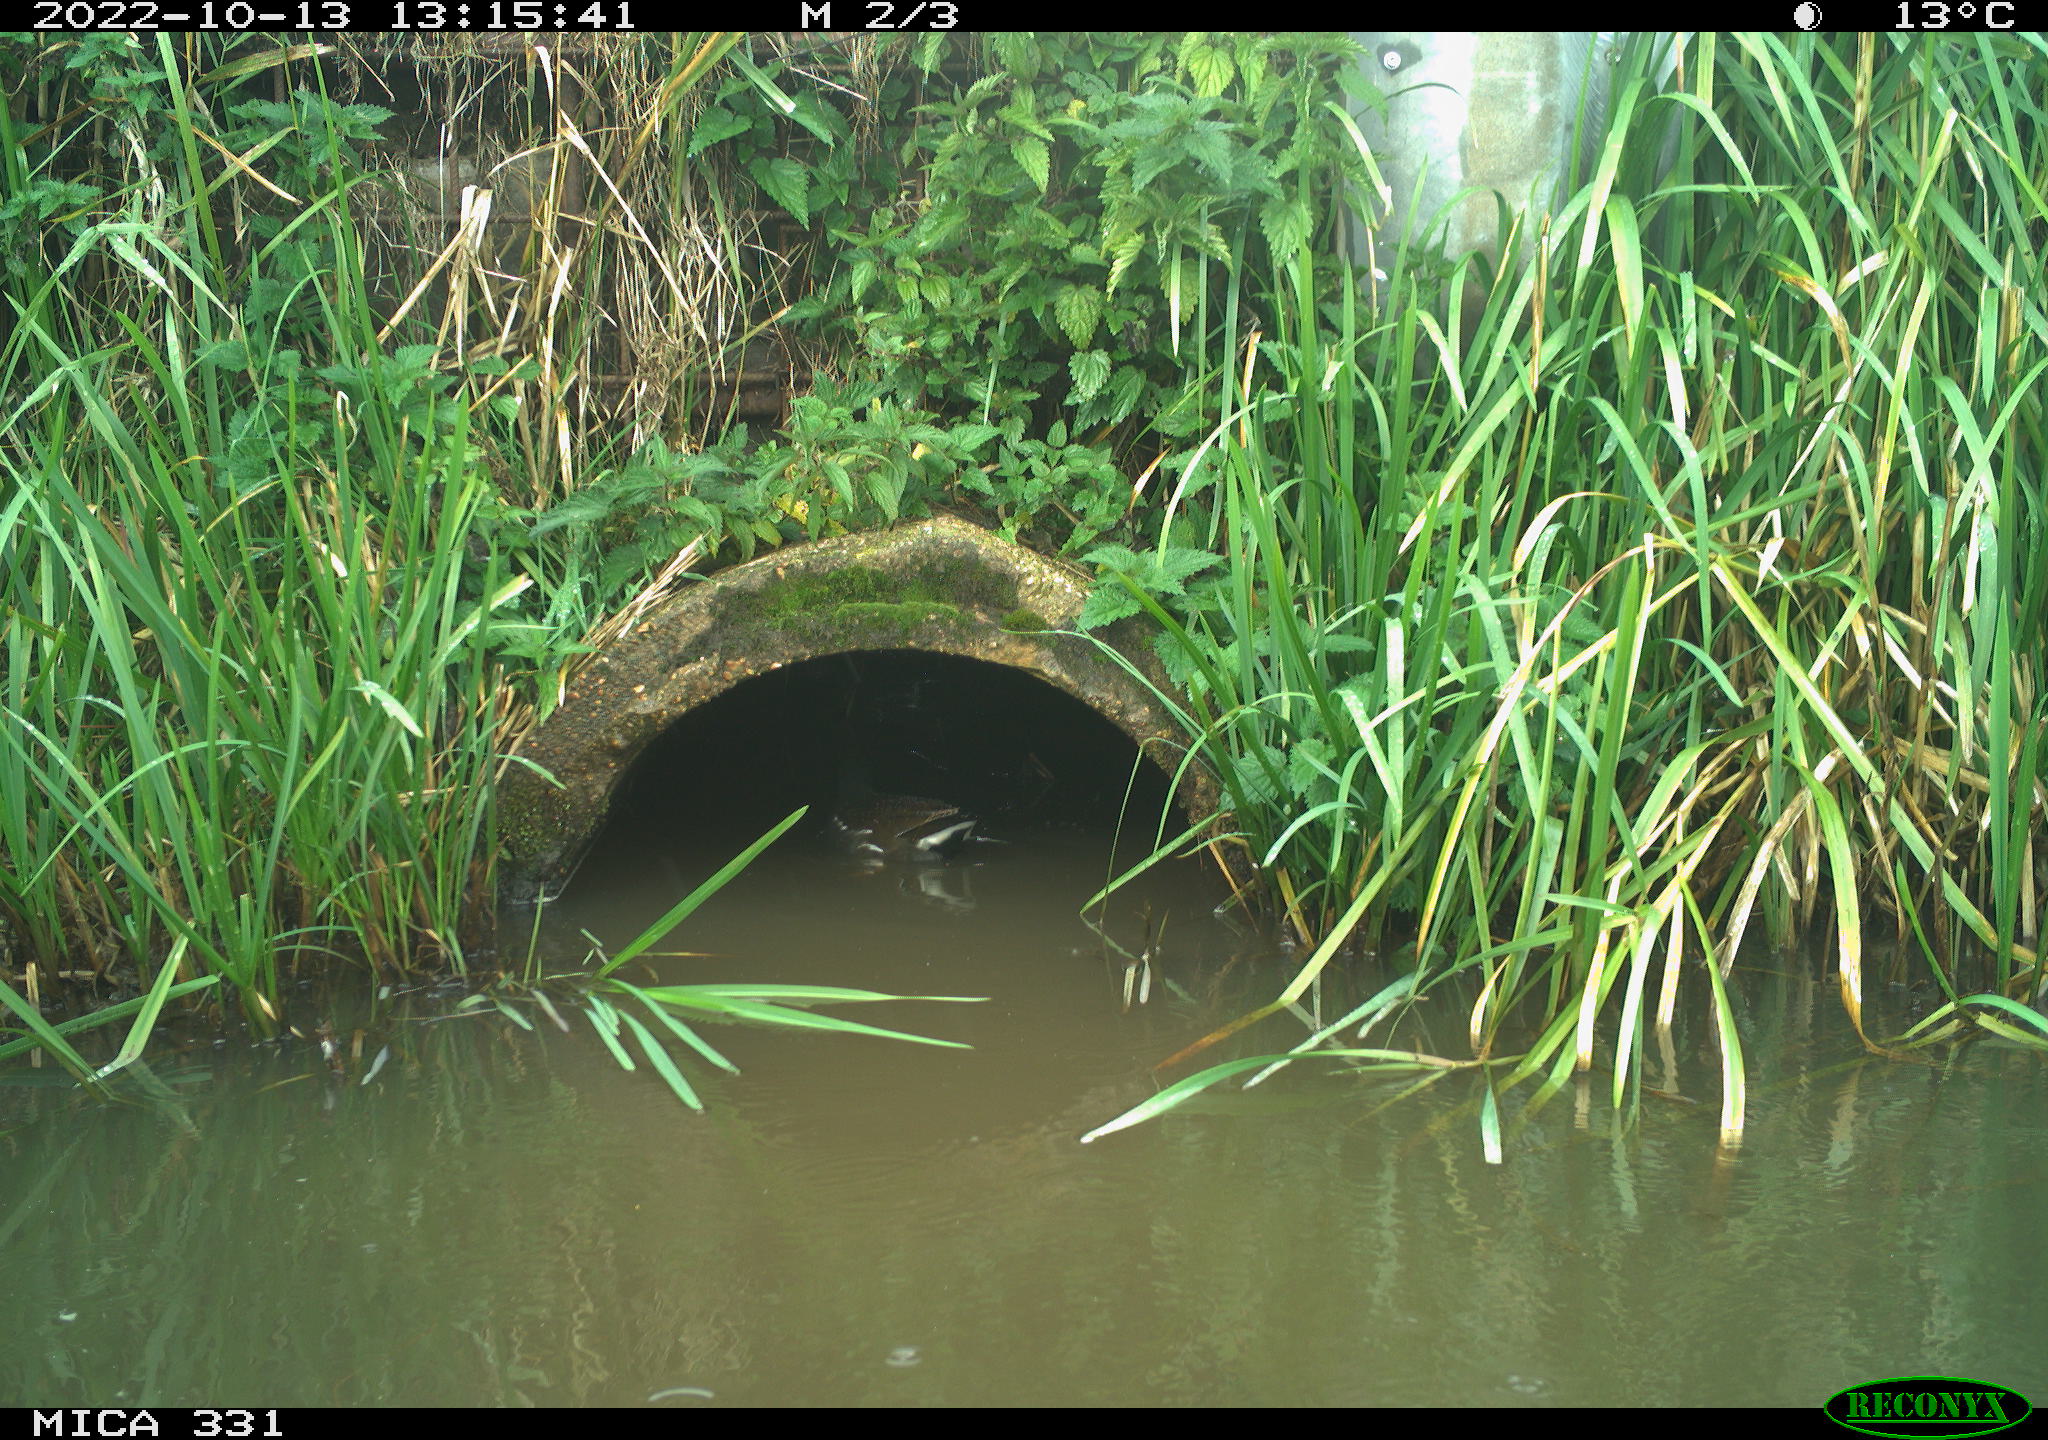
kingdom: Animalia
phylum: Chordata
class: Aves
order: Gruiformes
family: Rallidae
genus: Gallinula
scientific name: Gallinula chloropus
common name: Common moorhen
